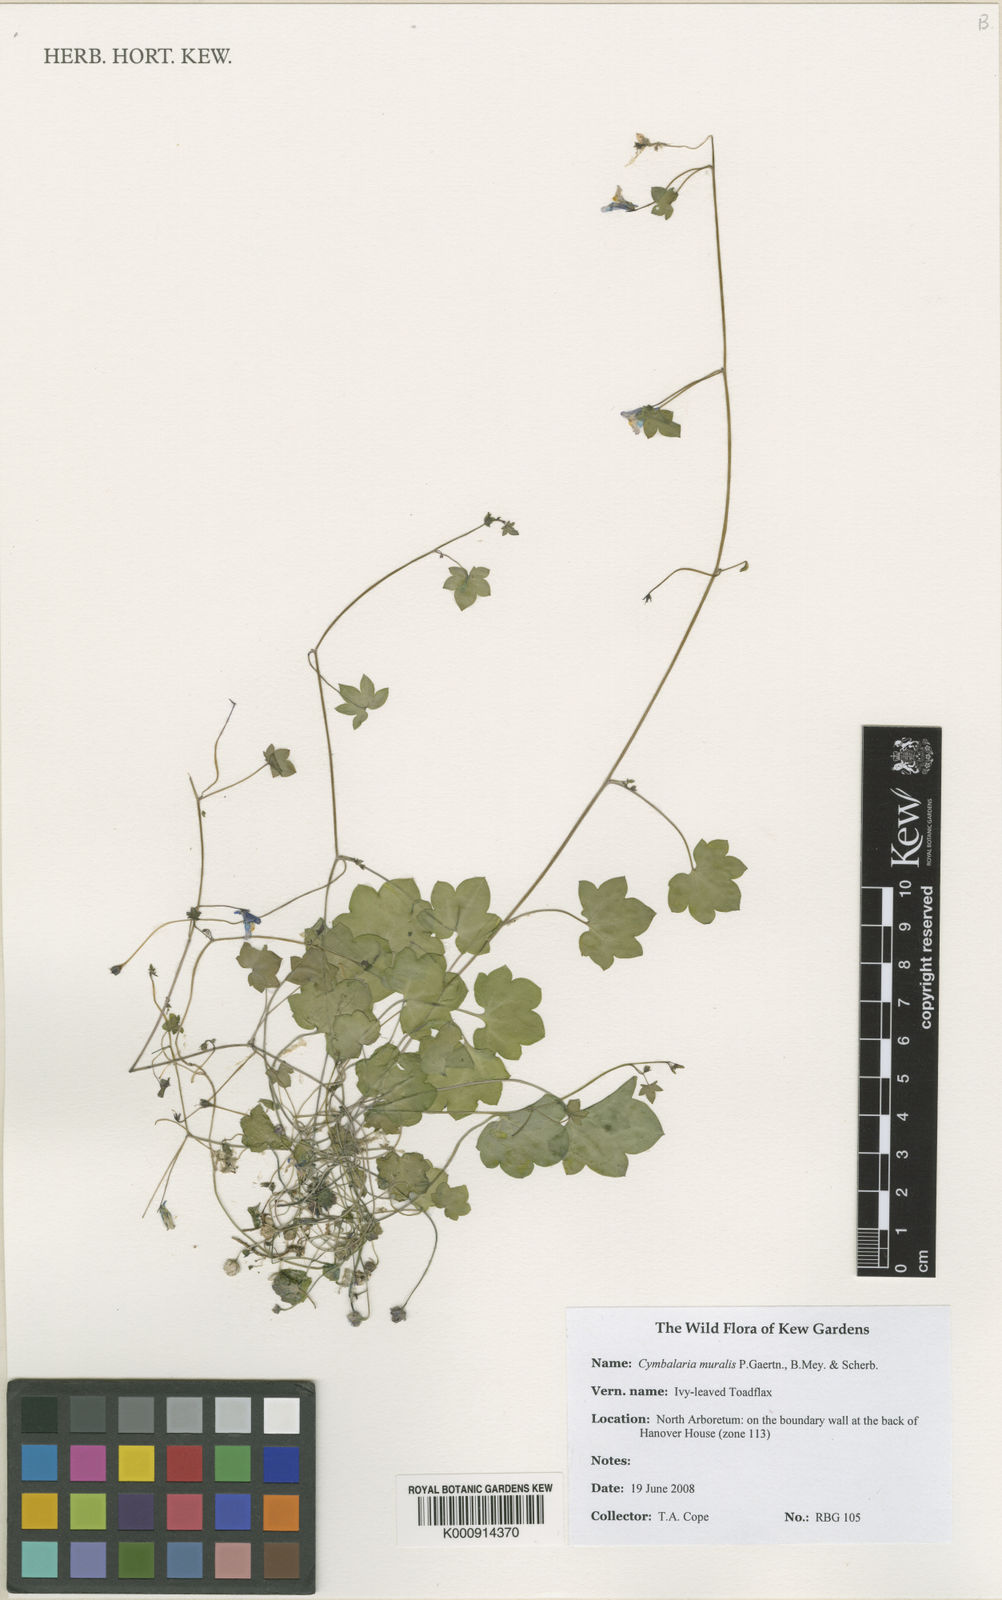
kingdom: Plantae
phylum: Tracheophyta
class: Magnoliopsida
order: Lamiales
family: Plantaginaceae
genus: Cymbalaria
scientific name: Cymbalaria
